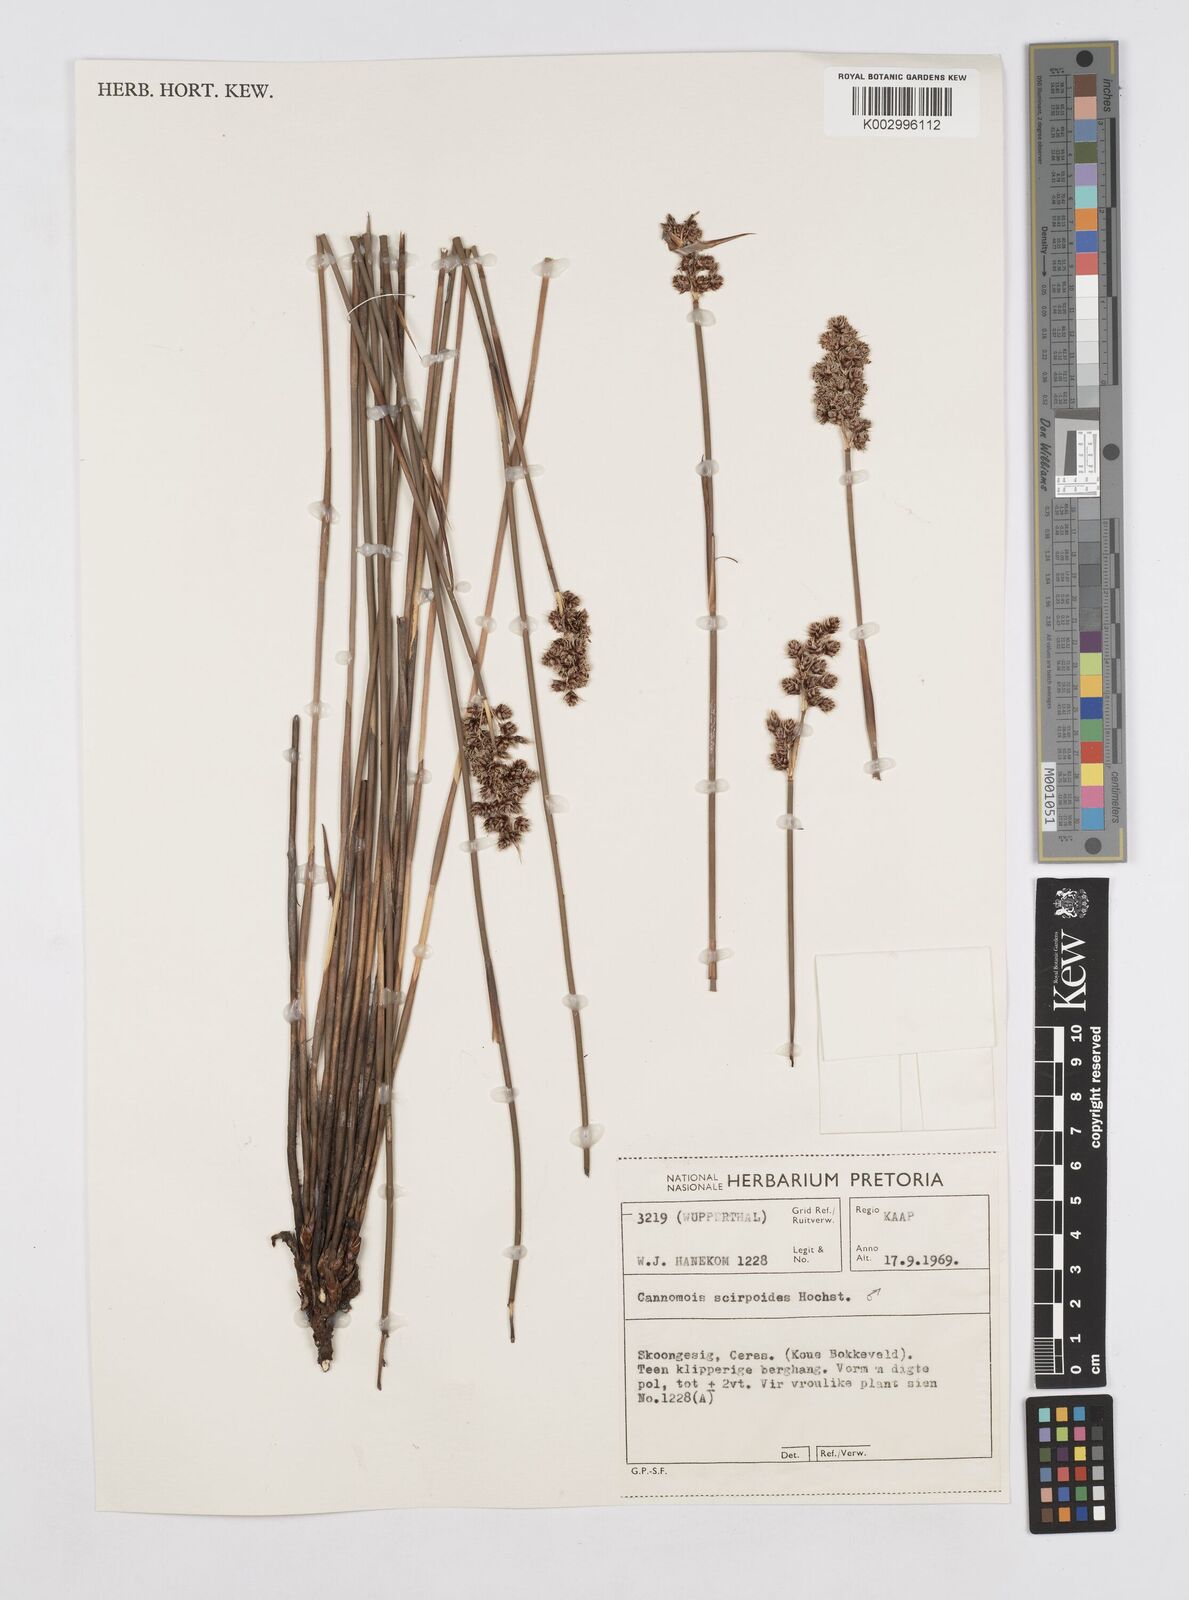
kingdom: Plantae
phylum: Tracheophyta
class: Liliopsida
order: Poales
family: Restionaceae
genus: Cannomois
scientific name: Cannomois scirpoides
